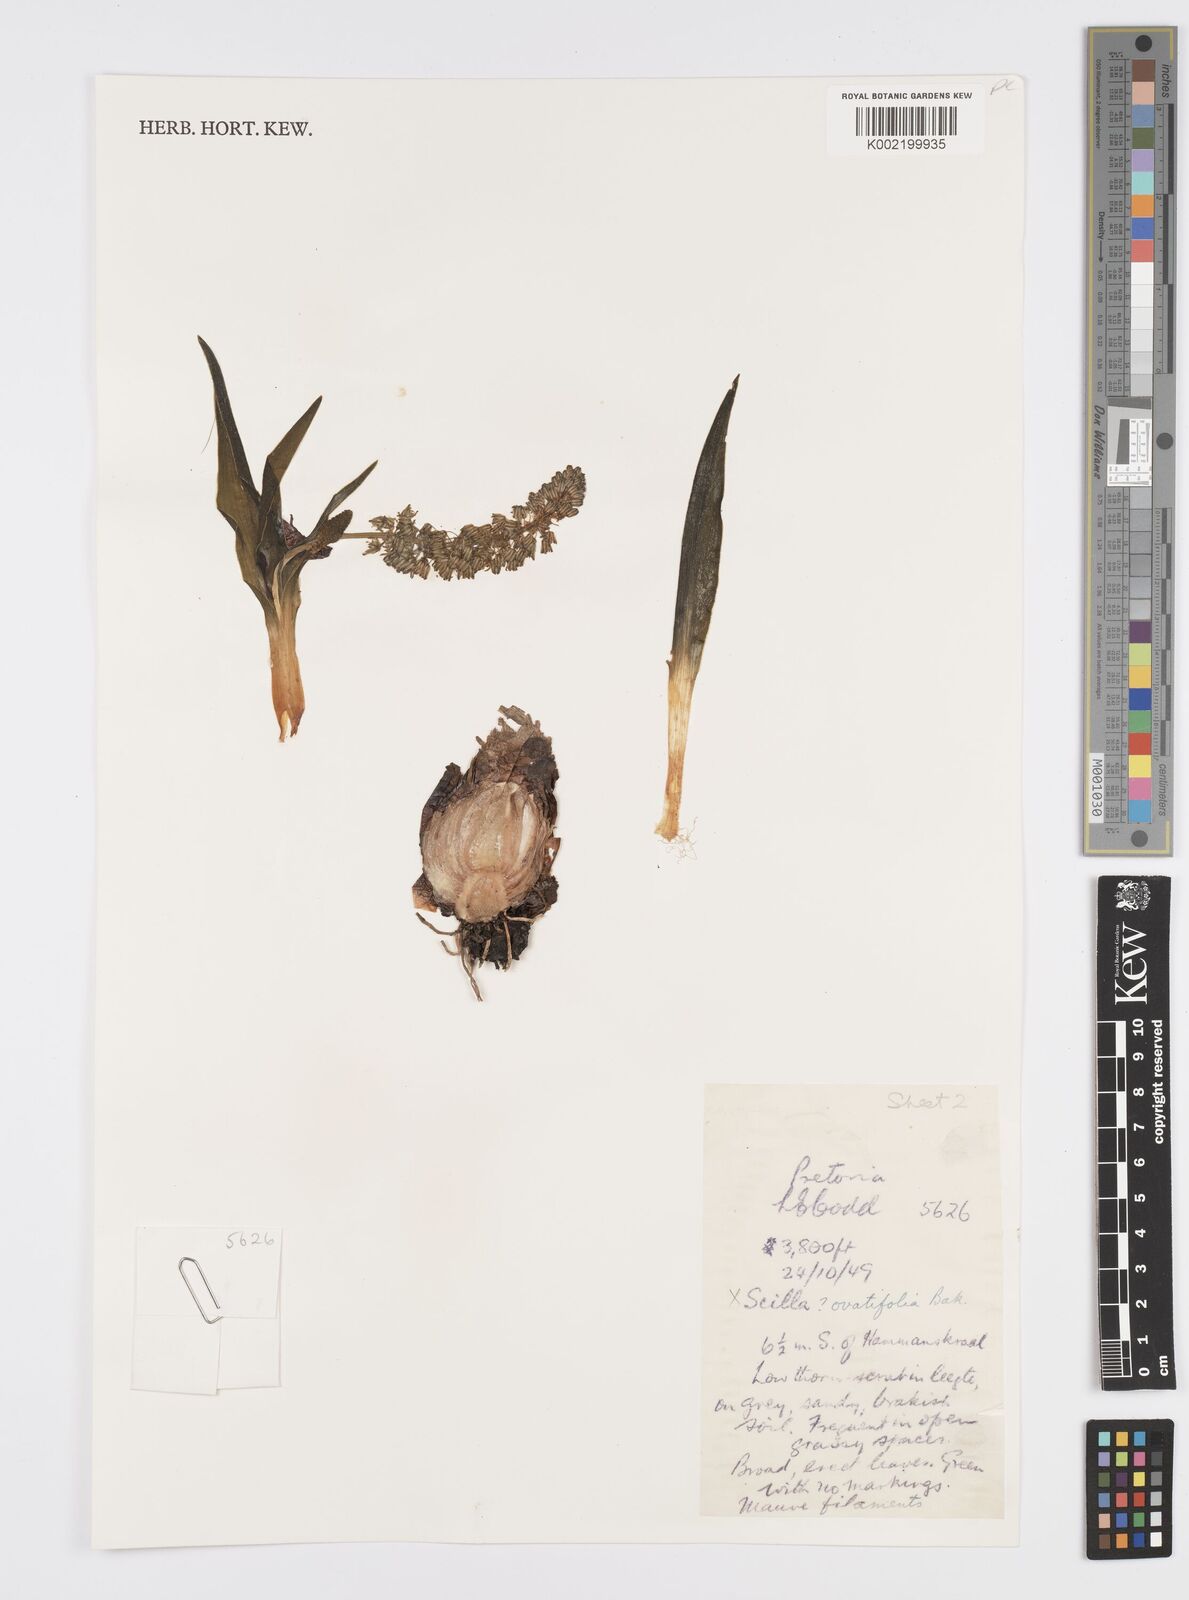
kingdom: Plantae
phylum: Tracheophyta
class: Liliopsida
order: Asparagales
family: Asparagaceae
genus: Ledebouria
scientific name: Ledebouria revoluta
